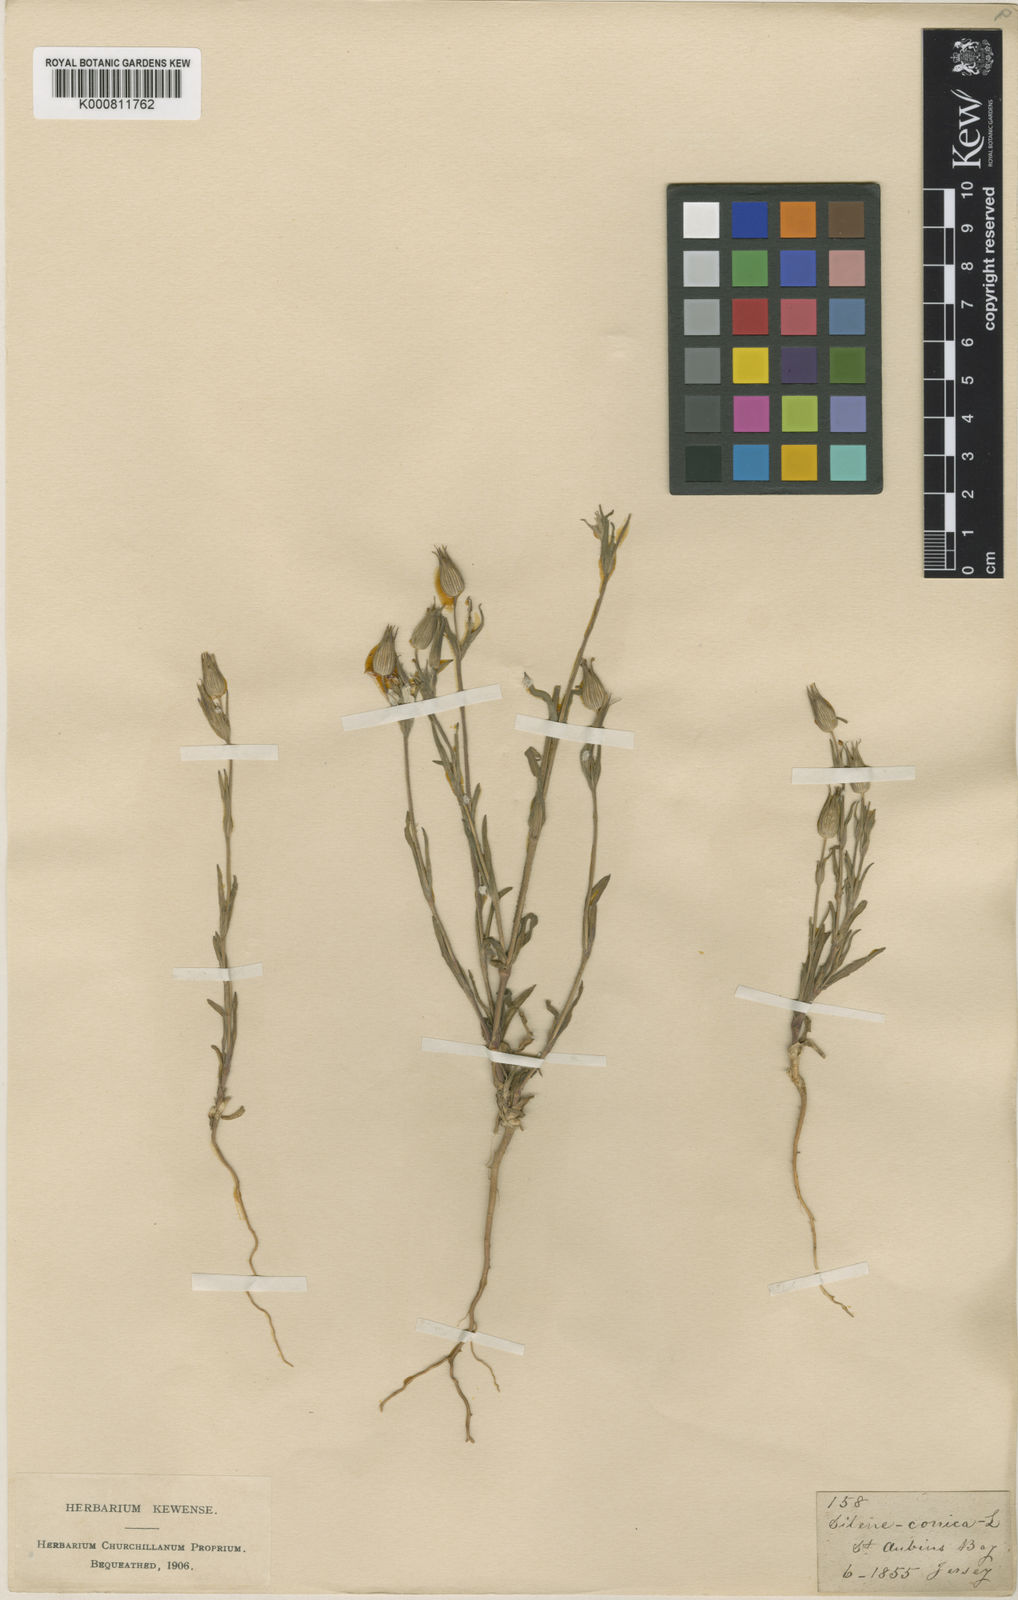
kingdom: Plantae
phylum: Tracheophyta
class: Magnoliopsida
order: Caryophyllales
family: Caryophyllaceae
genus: Silene
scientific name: Silene conica
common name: Sand catchfly
